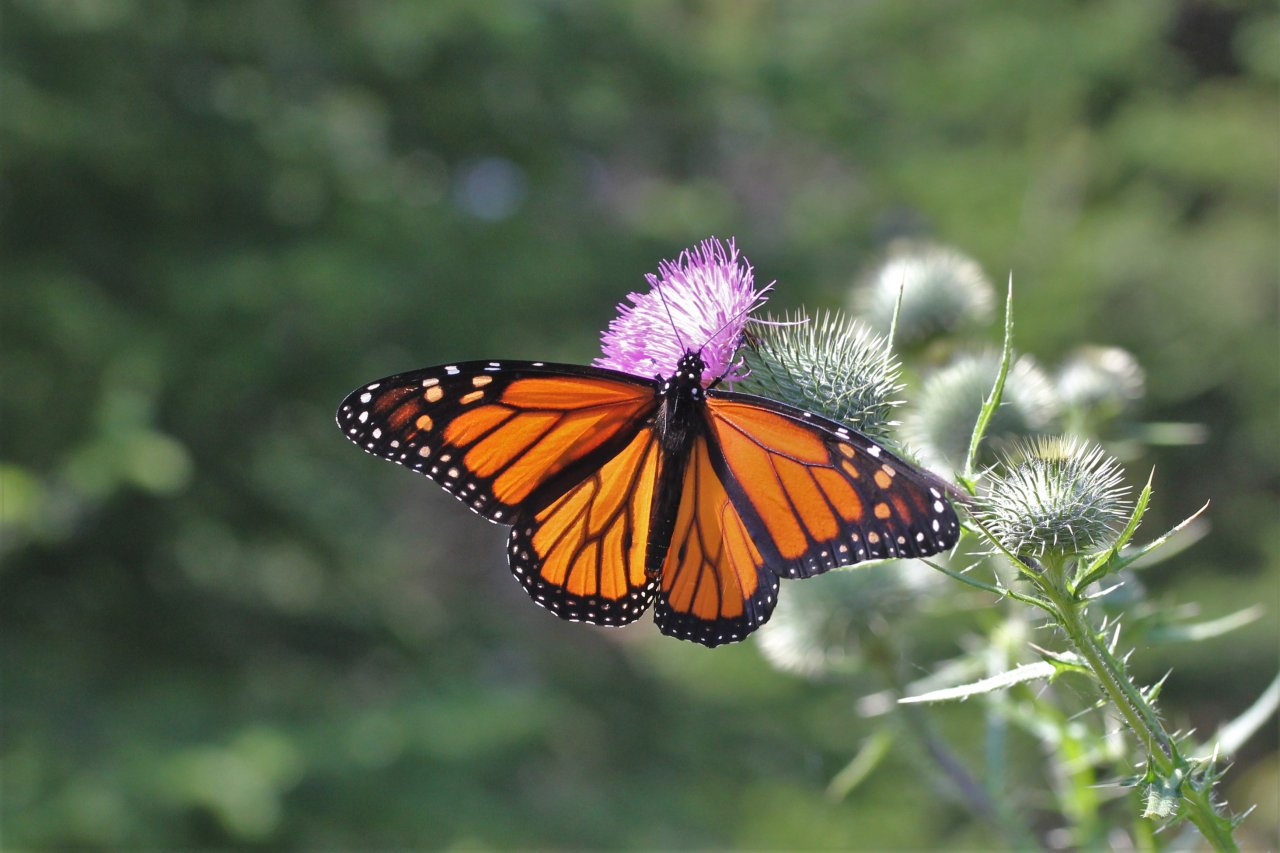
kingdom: Animalia
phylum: Arthropoda
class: Insecta
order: Lepidoptera
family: Nymphalidae
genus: Danaus
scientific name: Danaus plexippus
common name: Monarch
